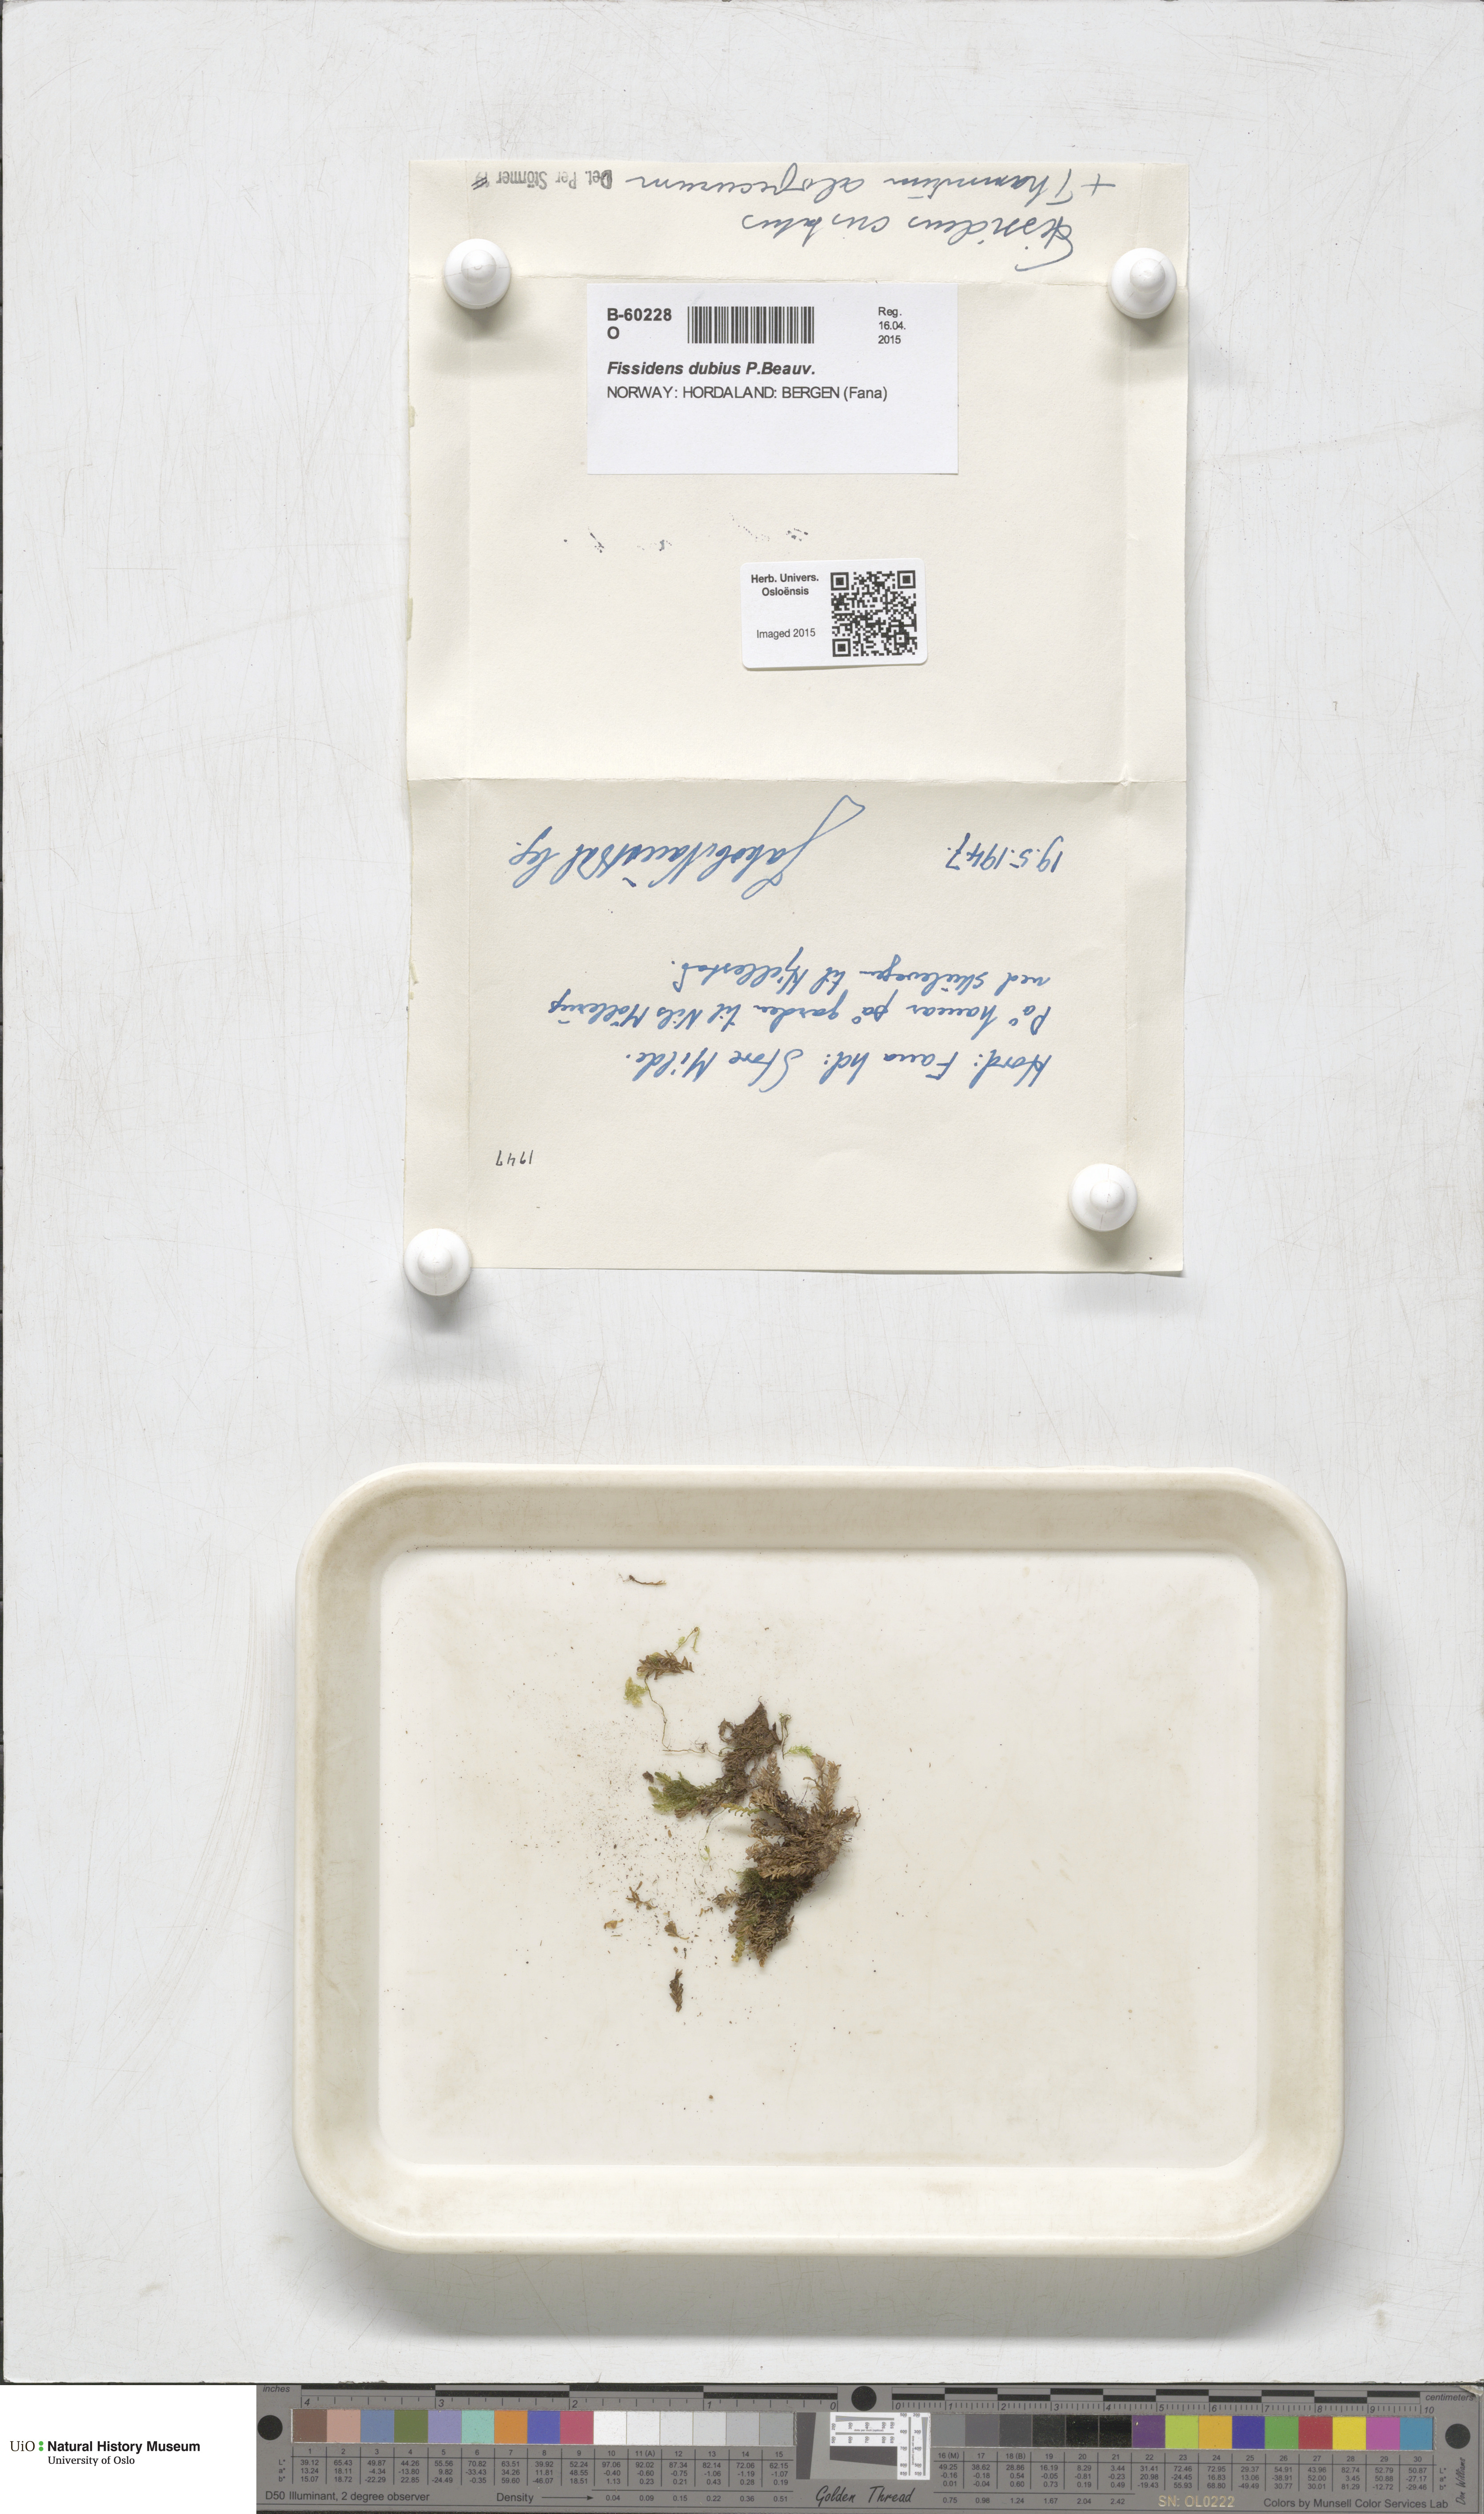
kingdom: Plantae
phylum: Bryophyta
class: Bryopsida
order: Dicranales
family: Fissidentaceae
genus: Fissidens
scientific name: Fissidens dubius
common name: Rock pocket moss
